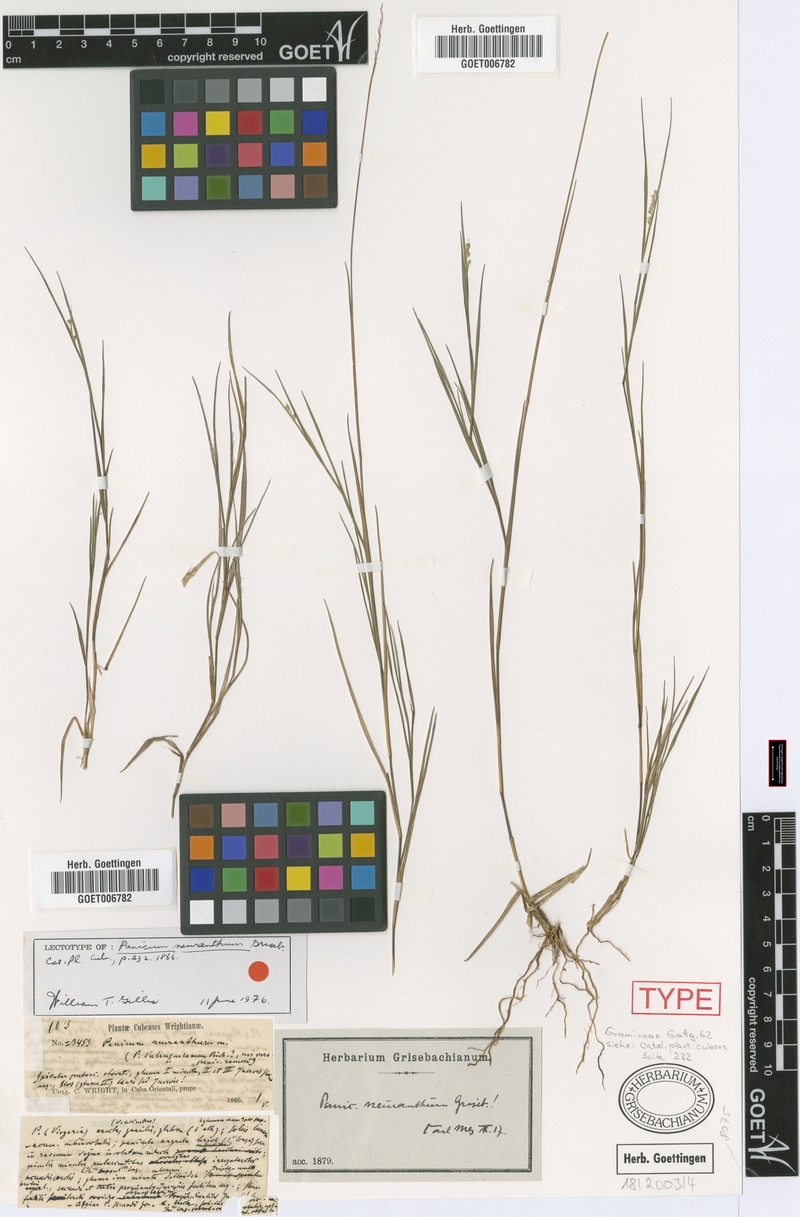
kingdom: Plantae
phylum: Tracheophyta
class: Liliopsida
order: Poales
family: Poaceae
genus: Dichanthelium
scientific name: Dichanthelium neuranthum
